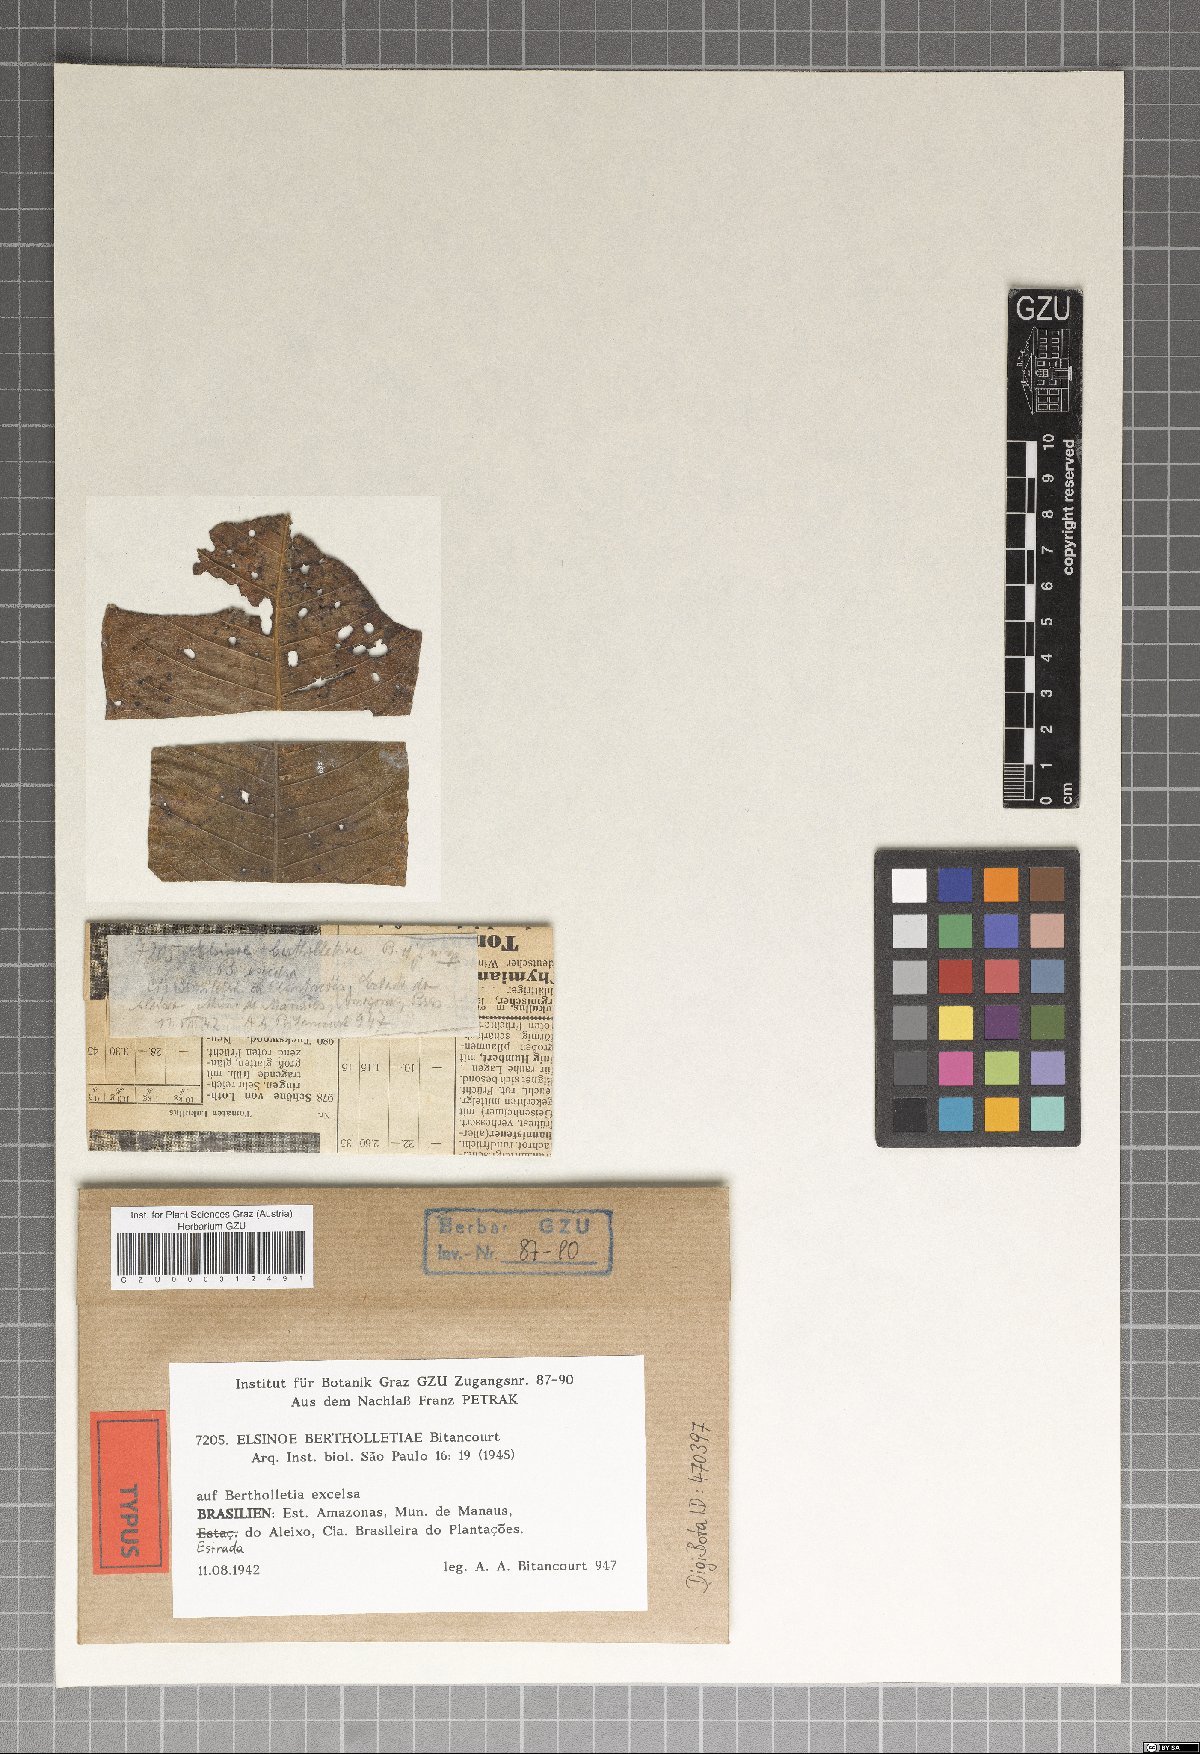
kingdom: Fungi
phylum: Ascomycota
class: Dothideomycetes
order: Myriangiales
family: Elsinoaceae
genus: Elsinoe
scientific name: Elsinoe bertholletiae
